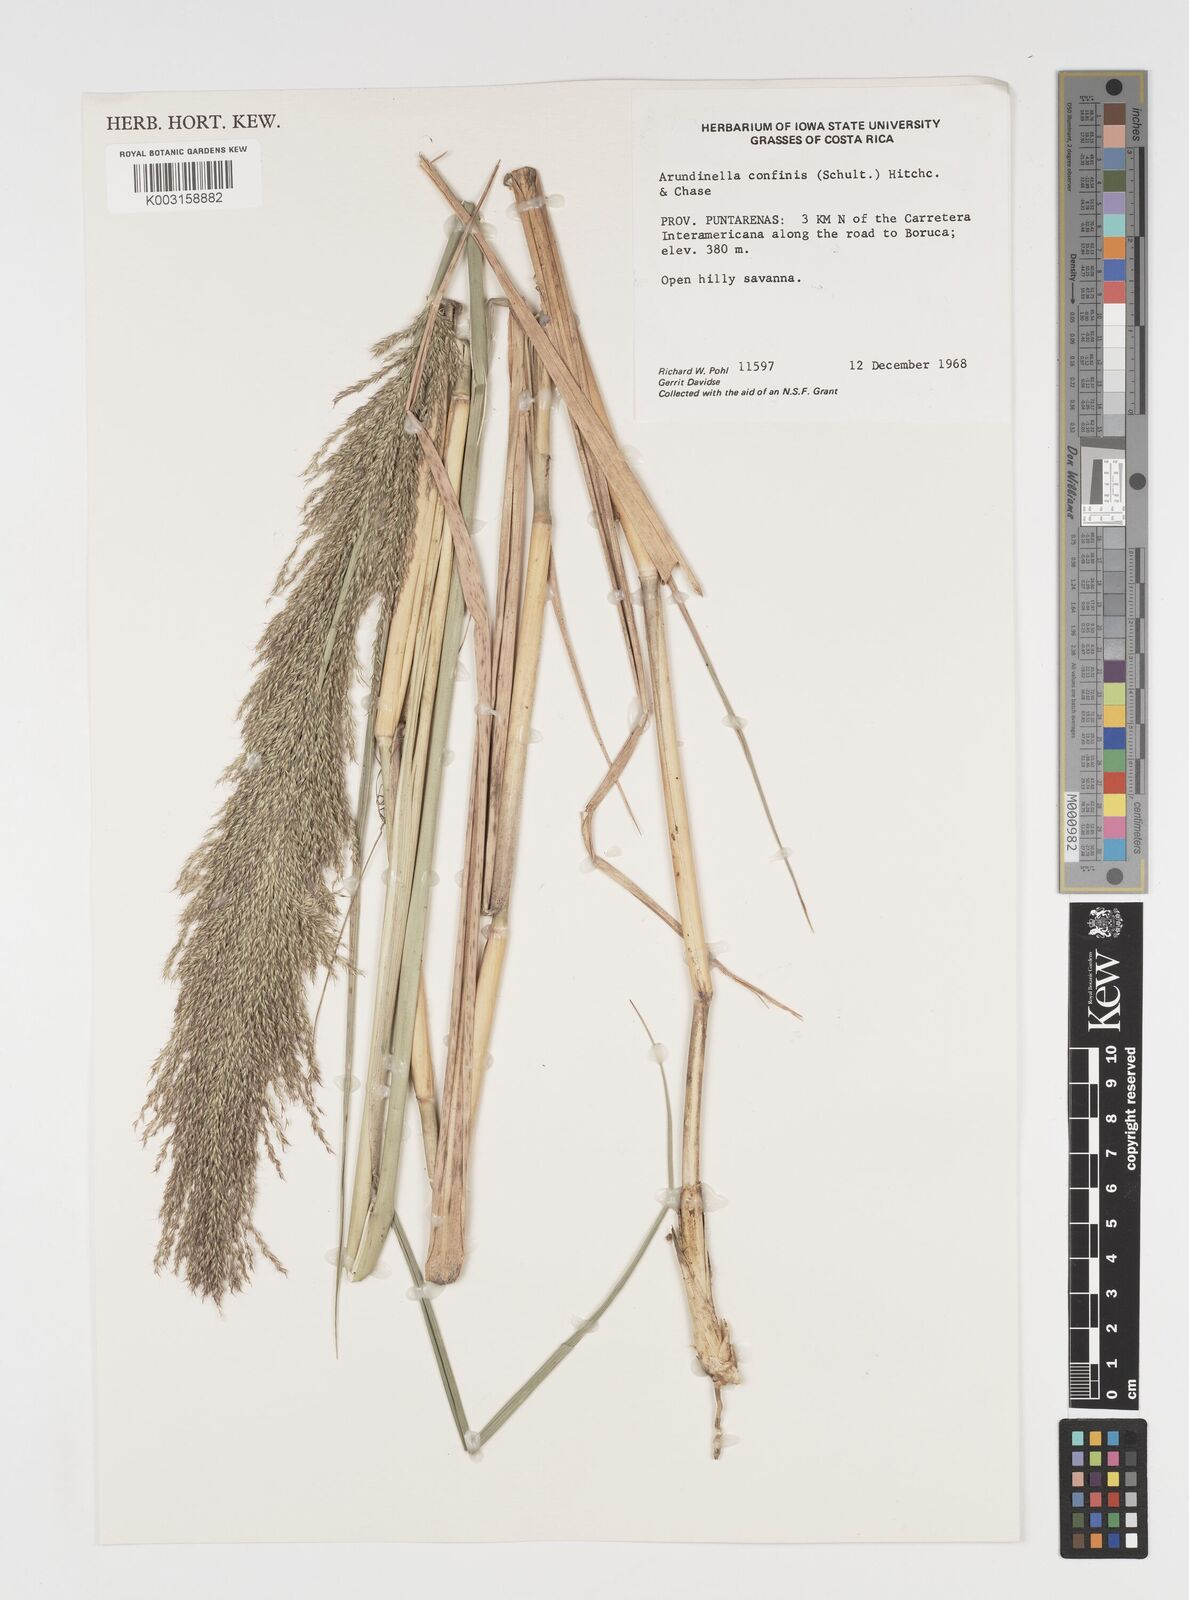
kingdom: Plantae
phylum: Tracheophyta
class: Liliopsida
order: Poales
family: Poaceae
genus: Arundinella
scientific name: Arundinella hispida
